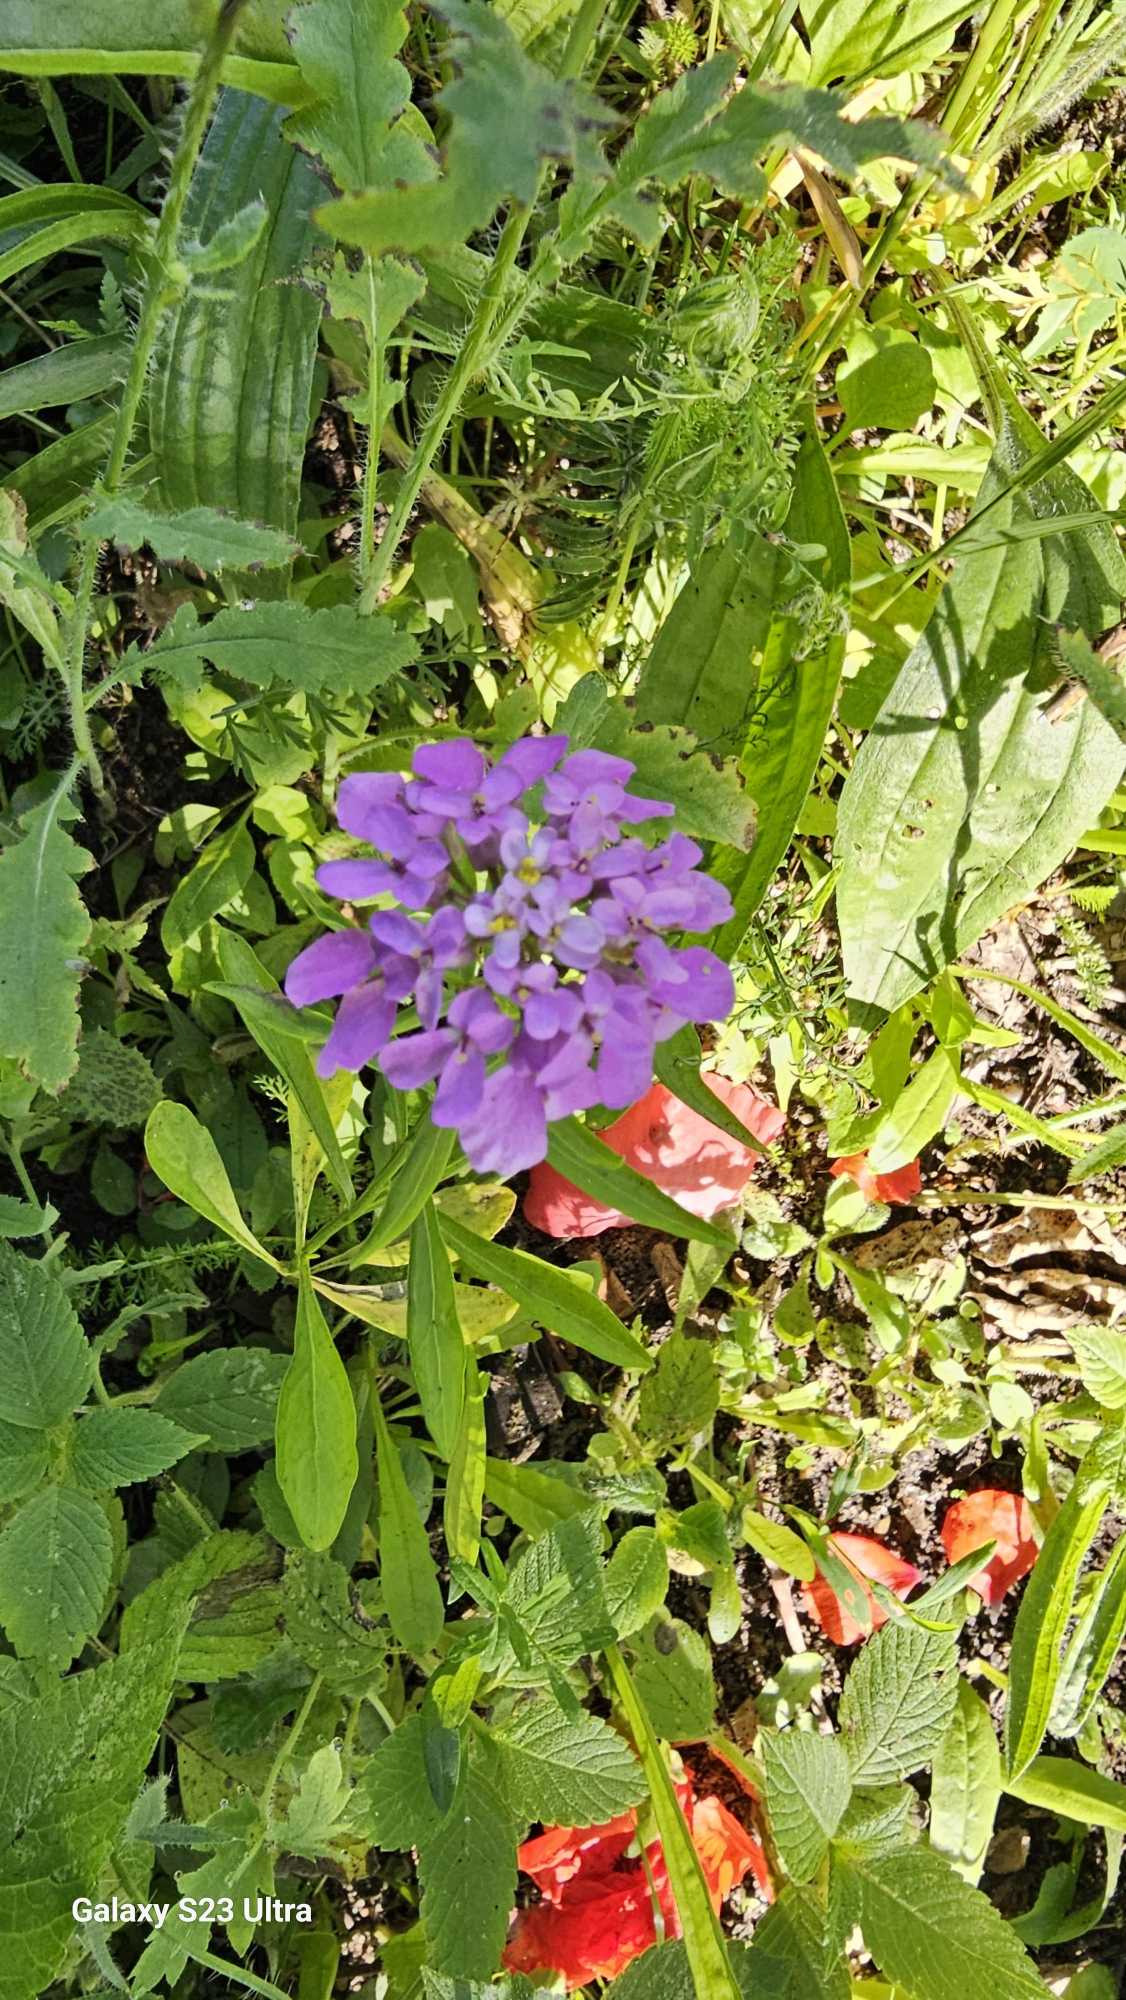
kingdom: Plantae
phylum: Tracheophyta
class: Magnoliopsida
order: Brassicales
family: Brassicaceae
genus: Iberis
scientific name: Iberis umbellata
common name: Skærm-sløjfeblomst
